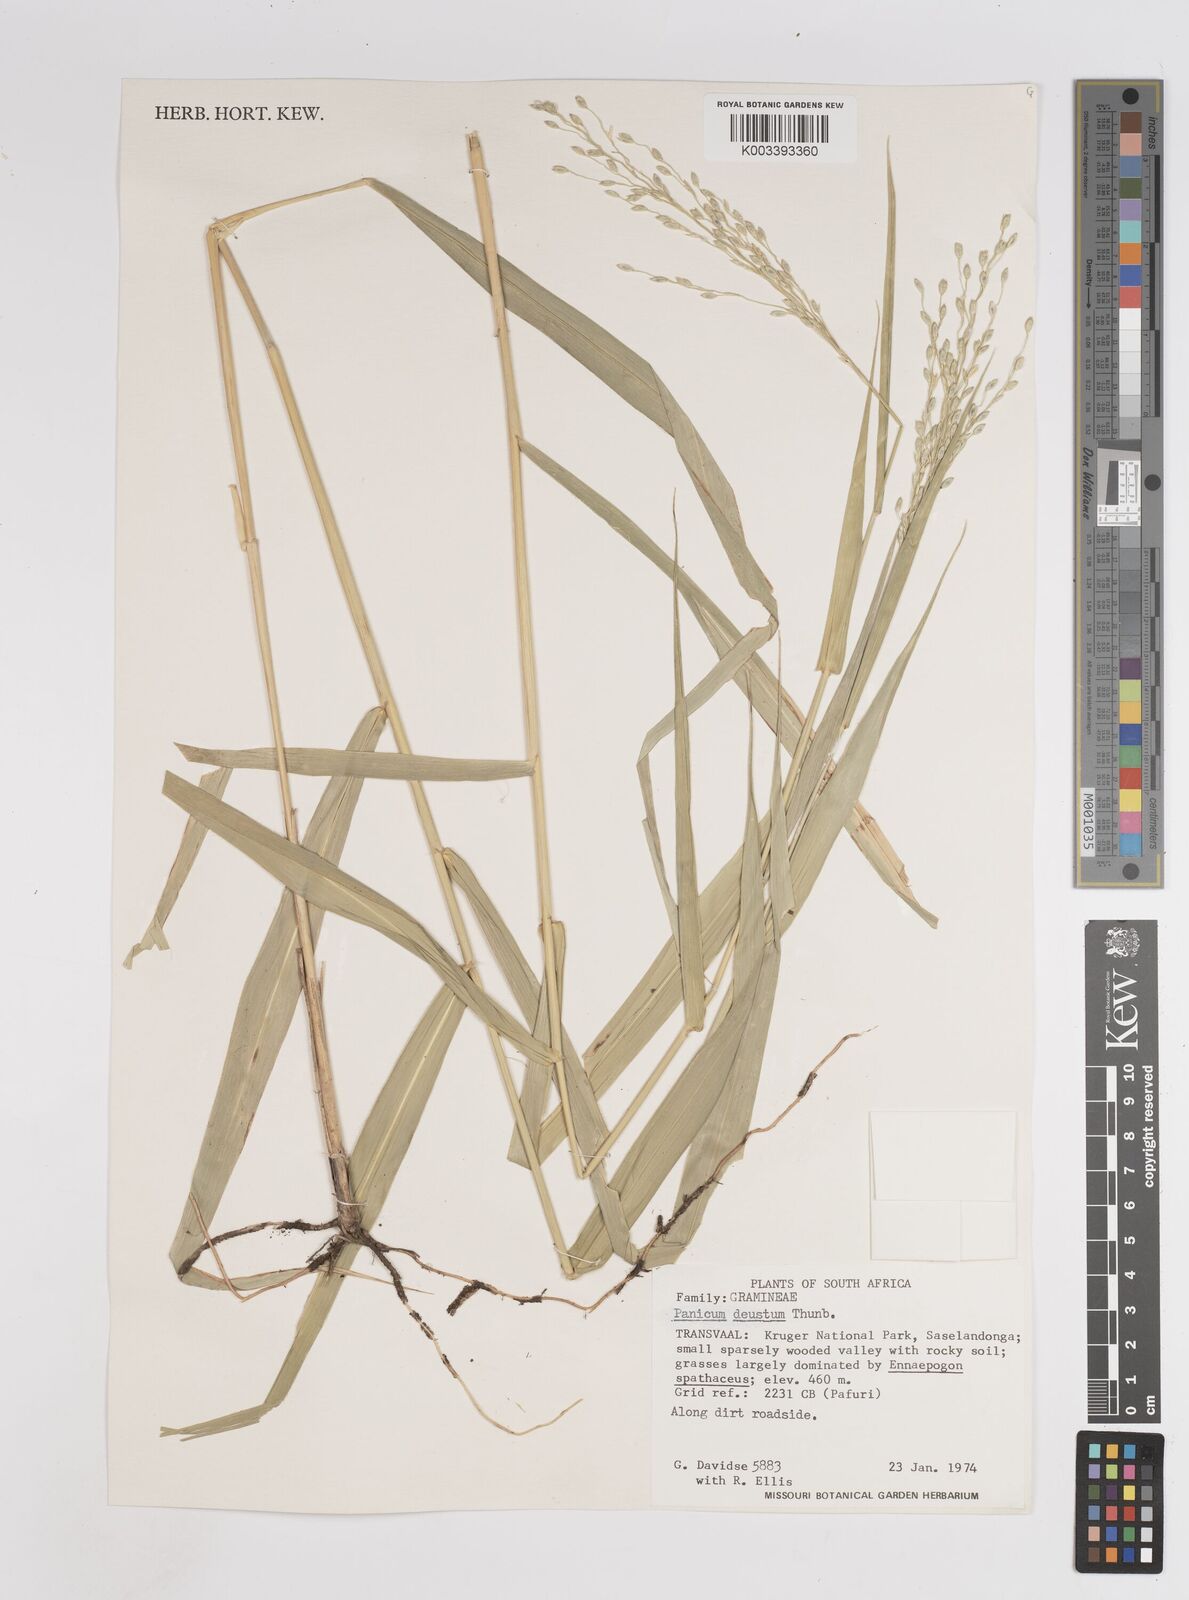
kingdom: Plantae
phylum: Tracheophyta
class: Liliopsida
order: Poales
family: Poaceae
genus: Panicum
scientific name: Panicum deustum
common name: Reed panicum
